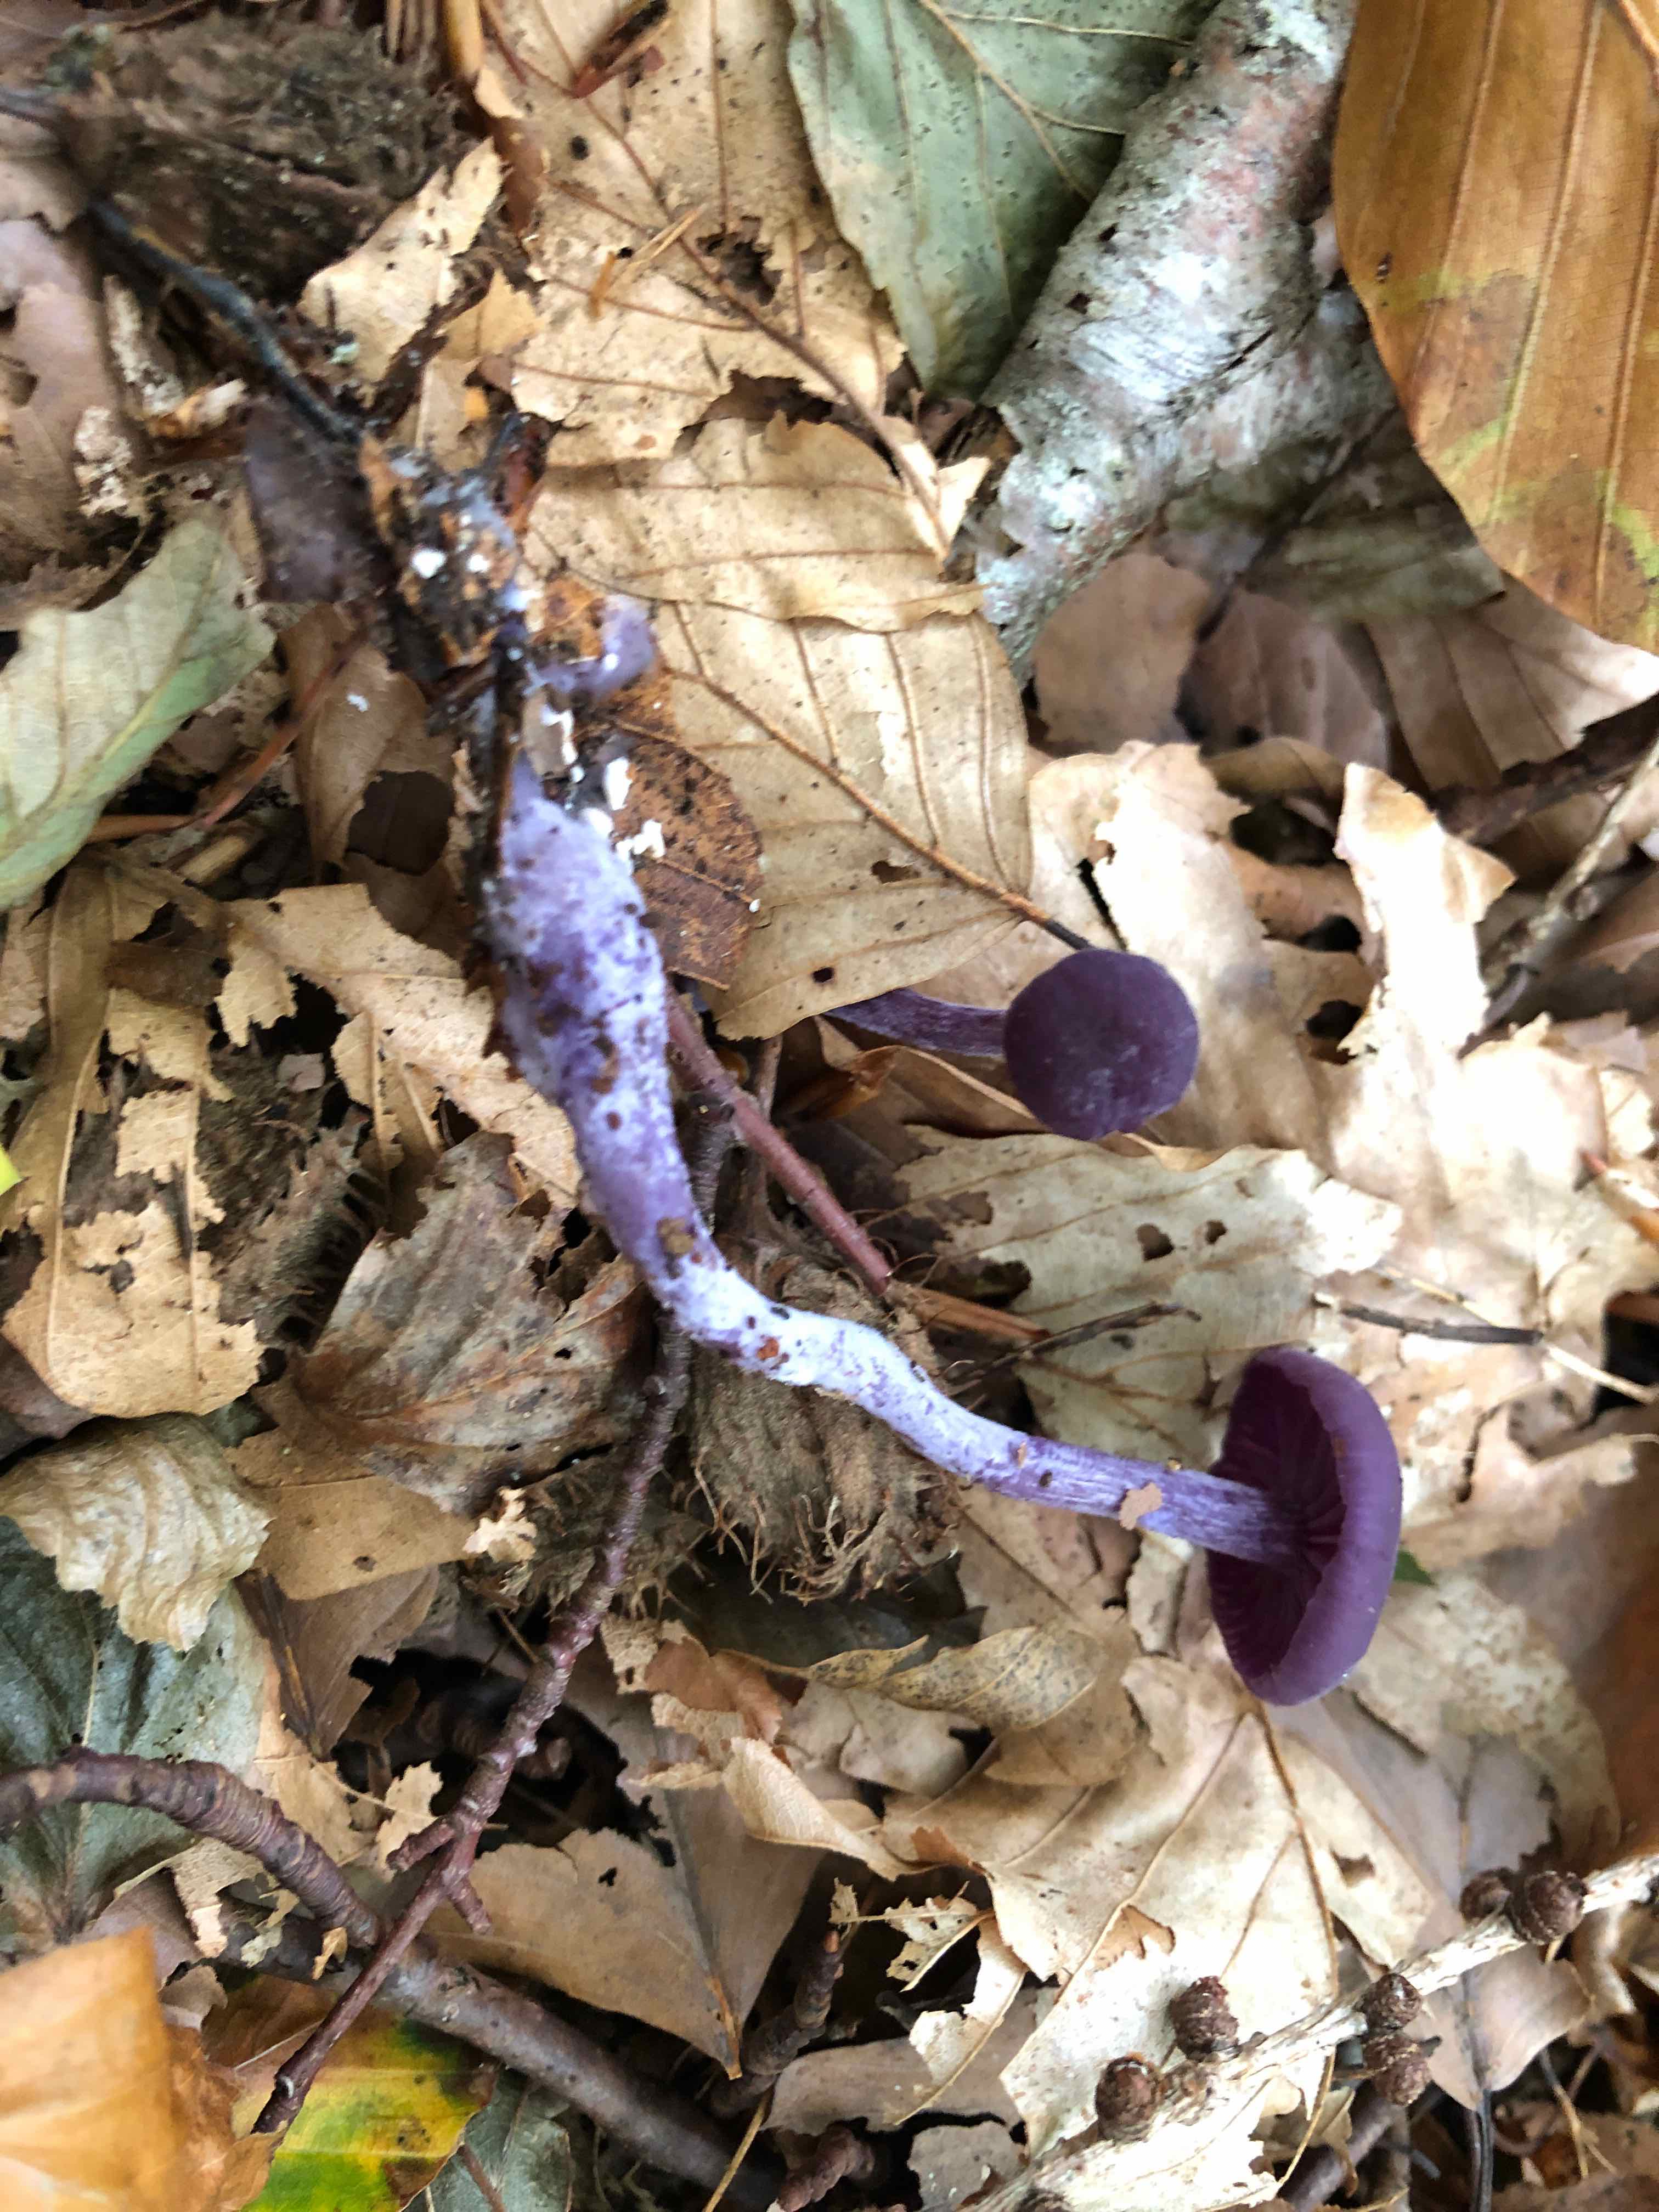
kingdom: Fungi
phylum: Basidiomycota
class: Agaricomycetes
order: Agaricales
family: Hydnangiaceae
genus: Laccaria
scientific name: Laccaria amethystina
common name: violet ametysthat
